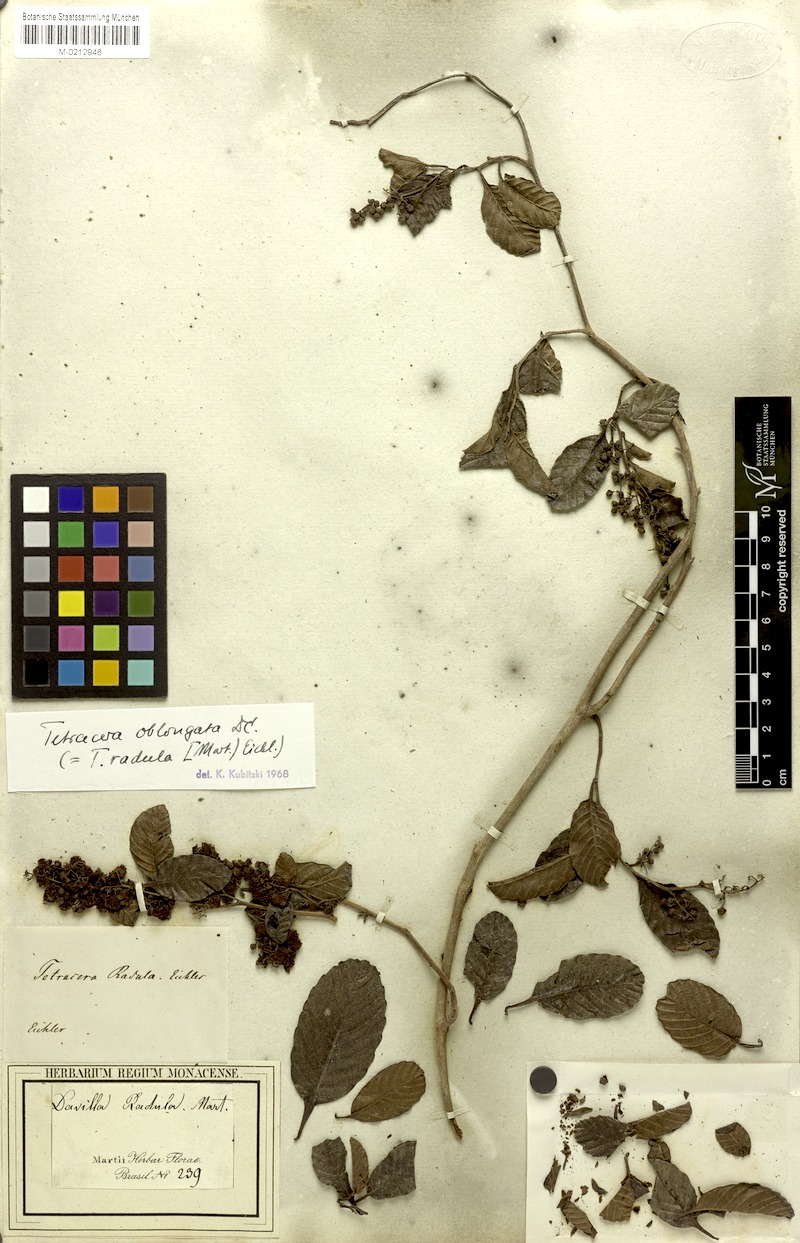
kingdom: Plantae
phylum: Tracheophyta
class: Magnoliopsida
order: Dilleniales
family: Dilleniaceae
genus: Tetracera
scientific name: Tetracera oblongata
